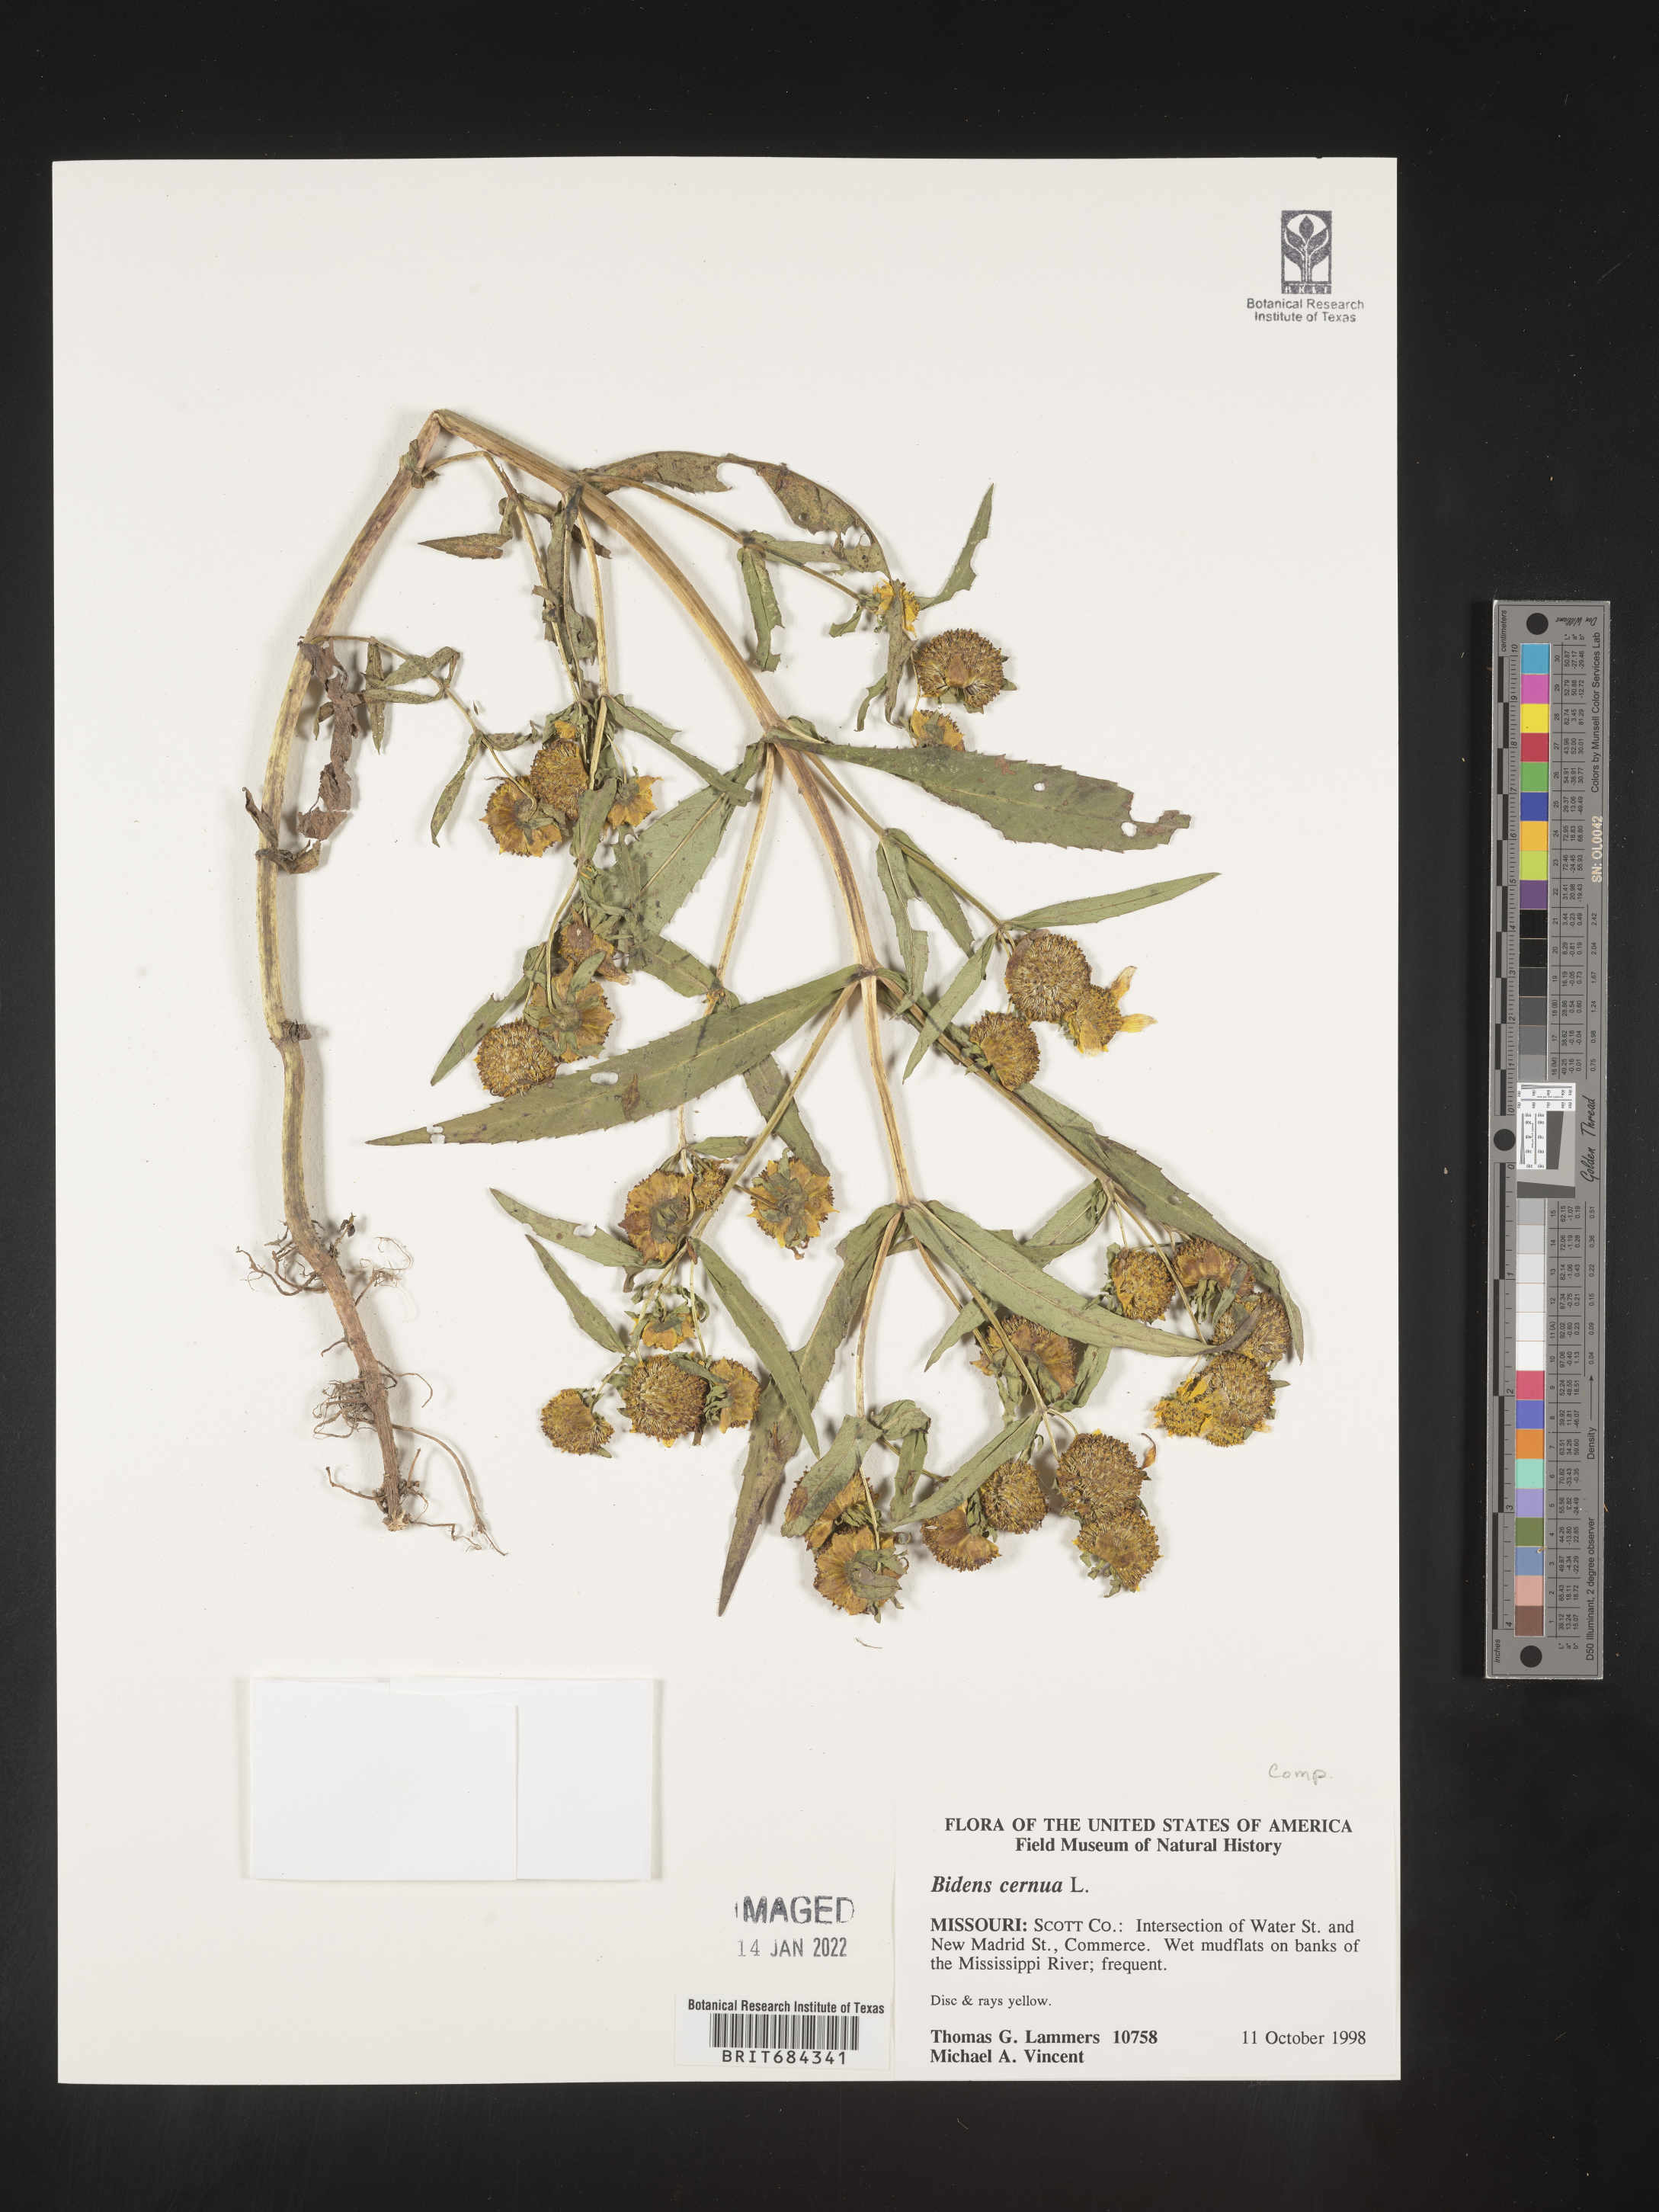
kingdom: Plantae
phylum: Tracheophyta
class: Magnoliopsida
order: Asterales
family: Asteraceae
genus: Bidens
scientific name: Bidens cernua
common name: Nodding bur-marigold
